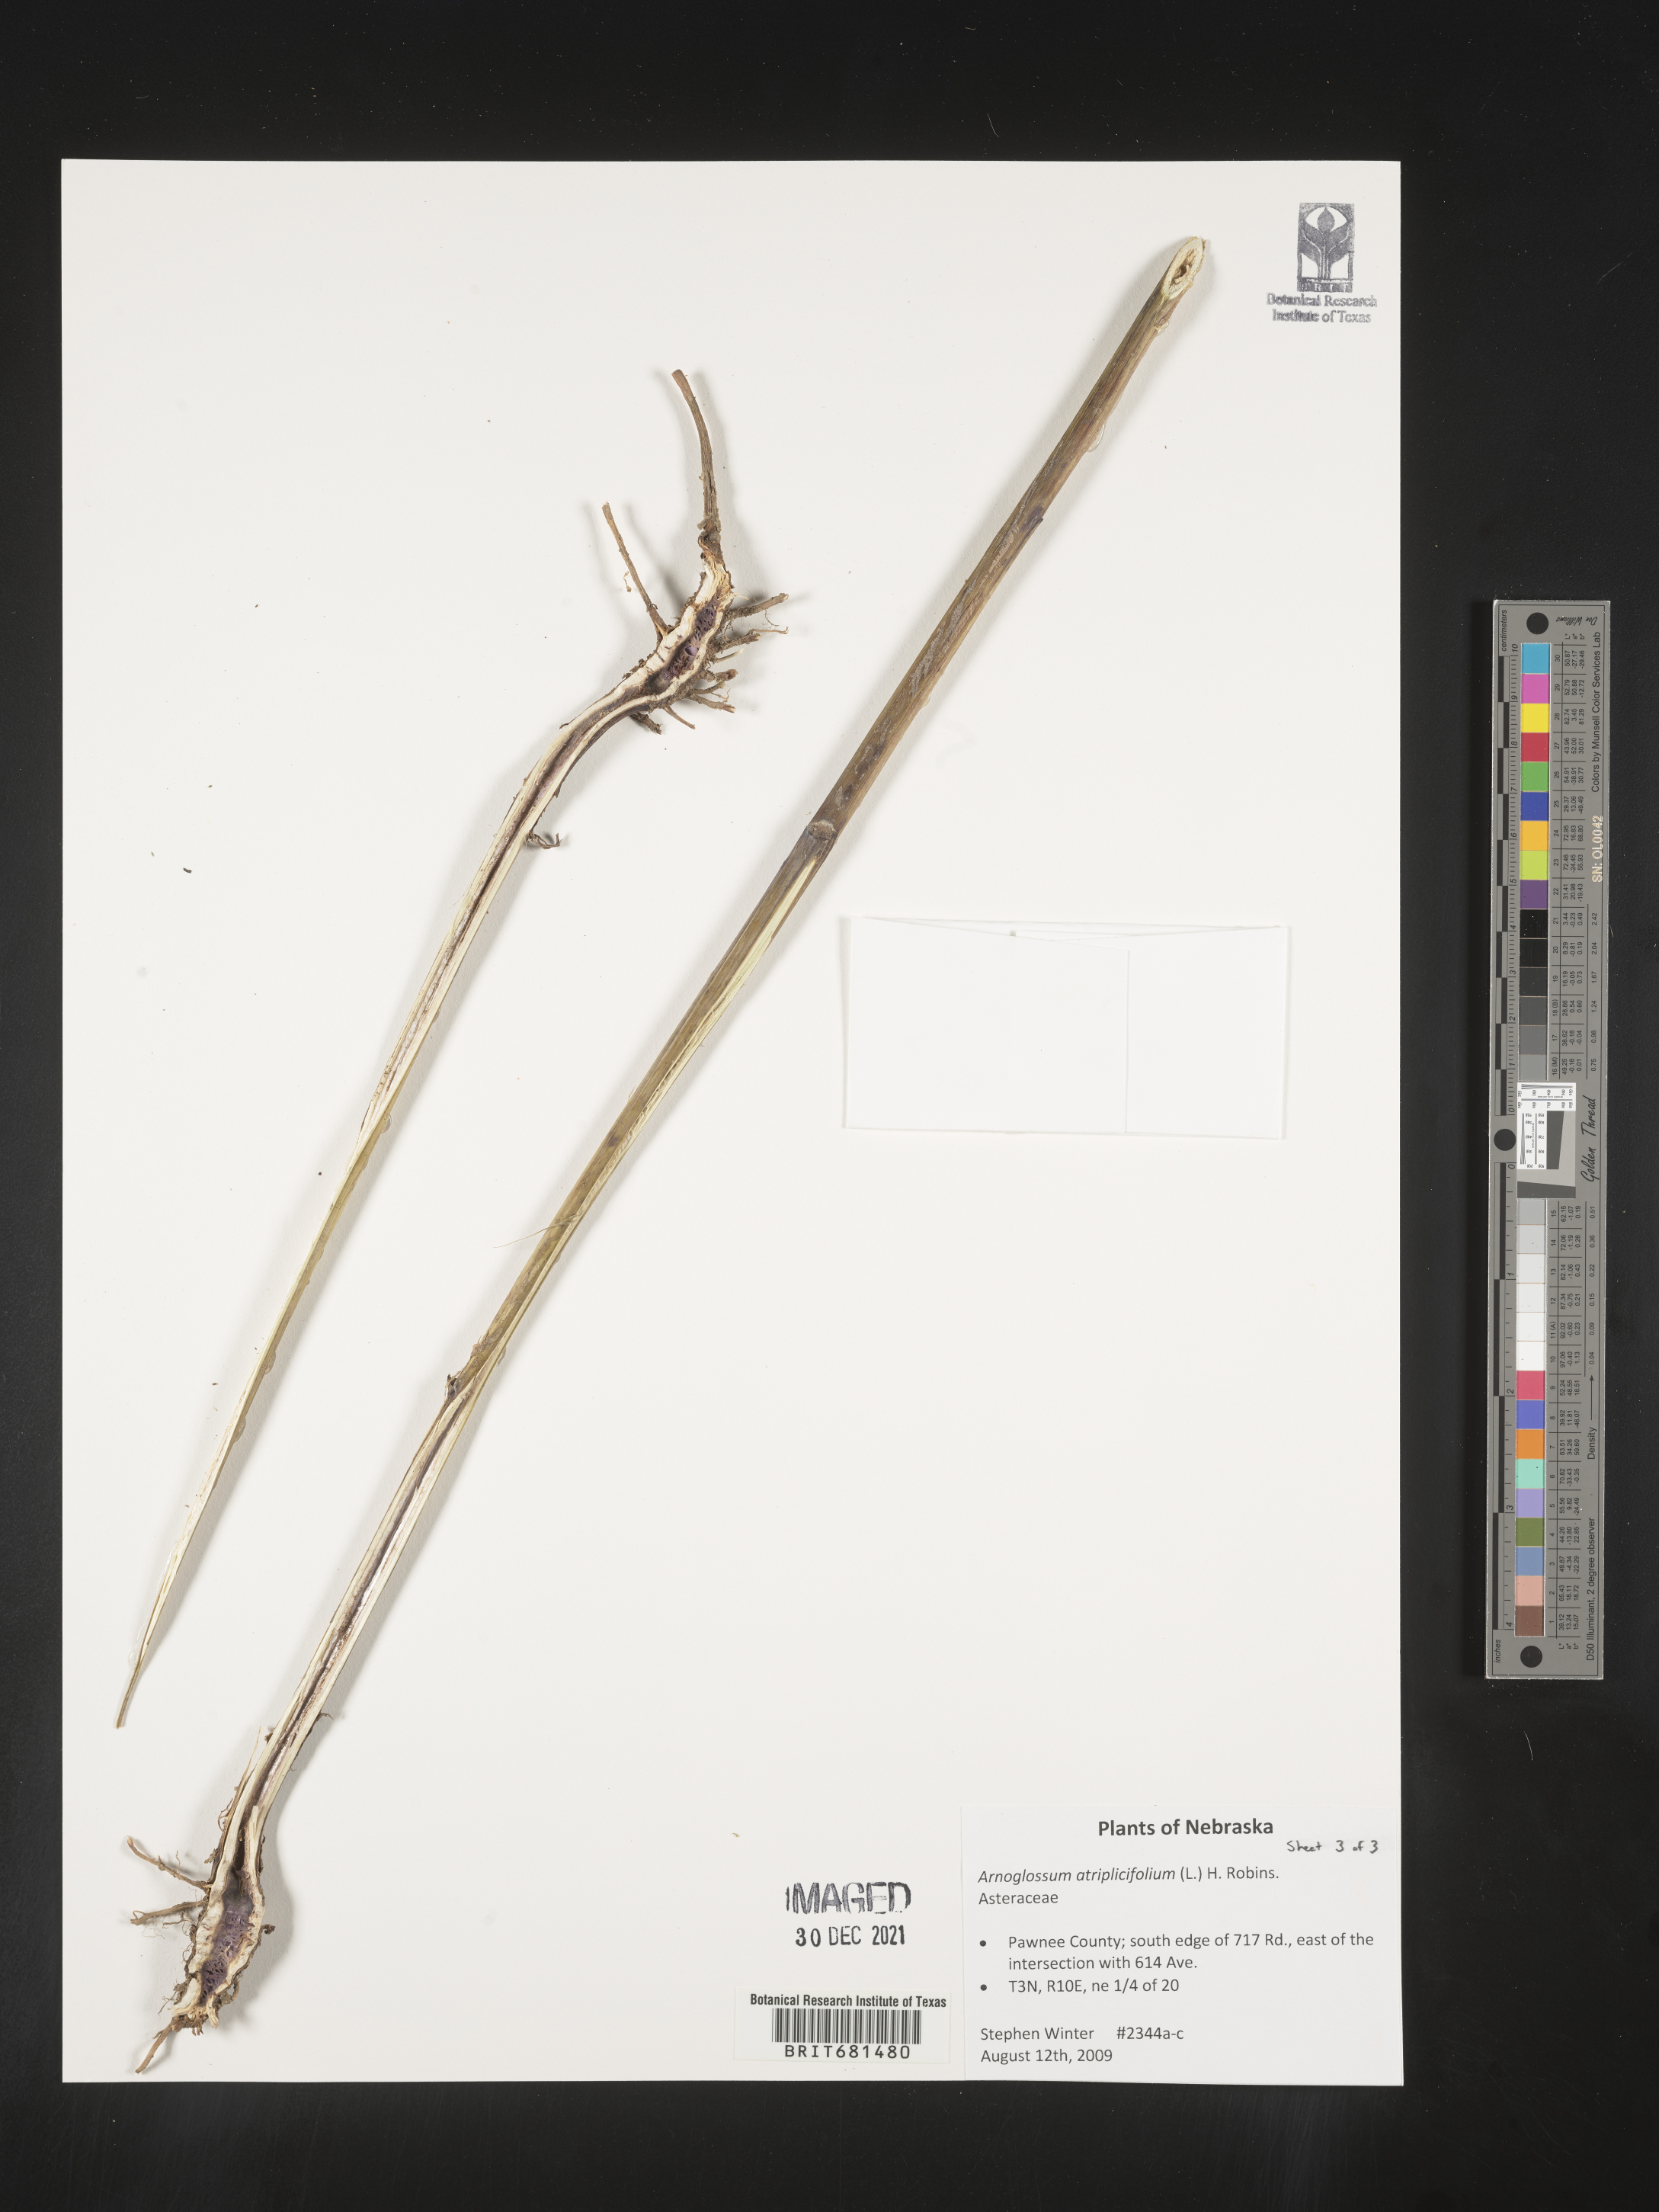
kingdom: Plantae
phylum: Tracheophyta
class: Magnoliopsida
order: Asterales
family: Asteraceae
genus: Arnoglossum
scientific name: Arnoglossum atriplicifolium
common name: Pale indian-plantain
